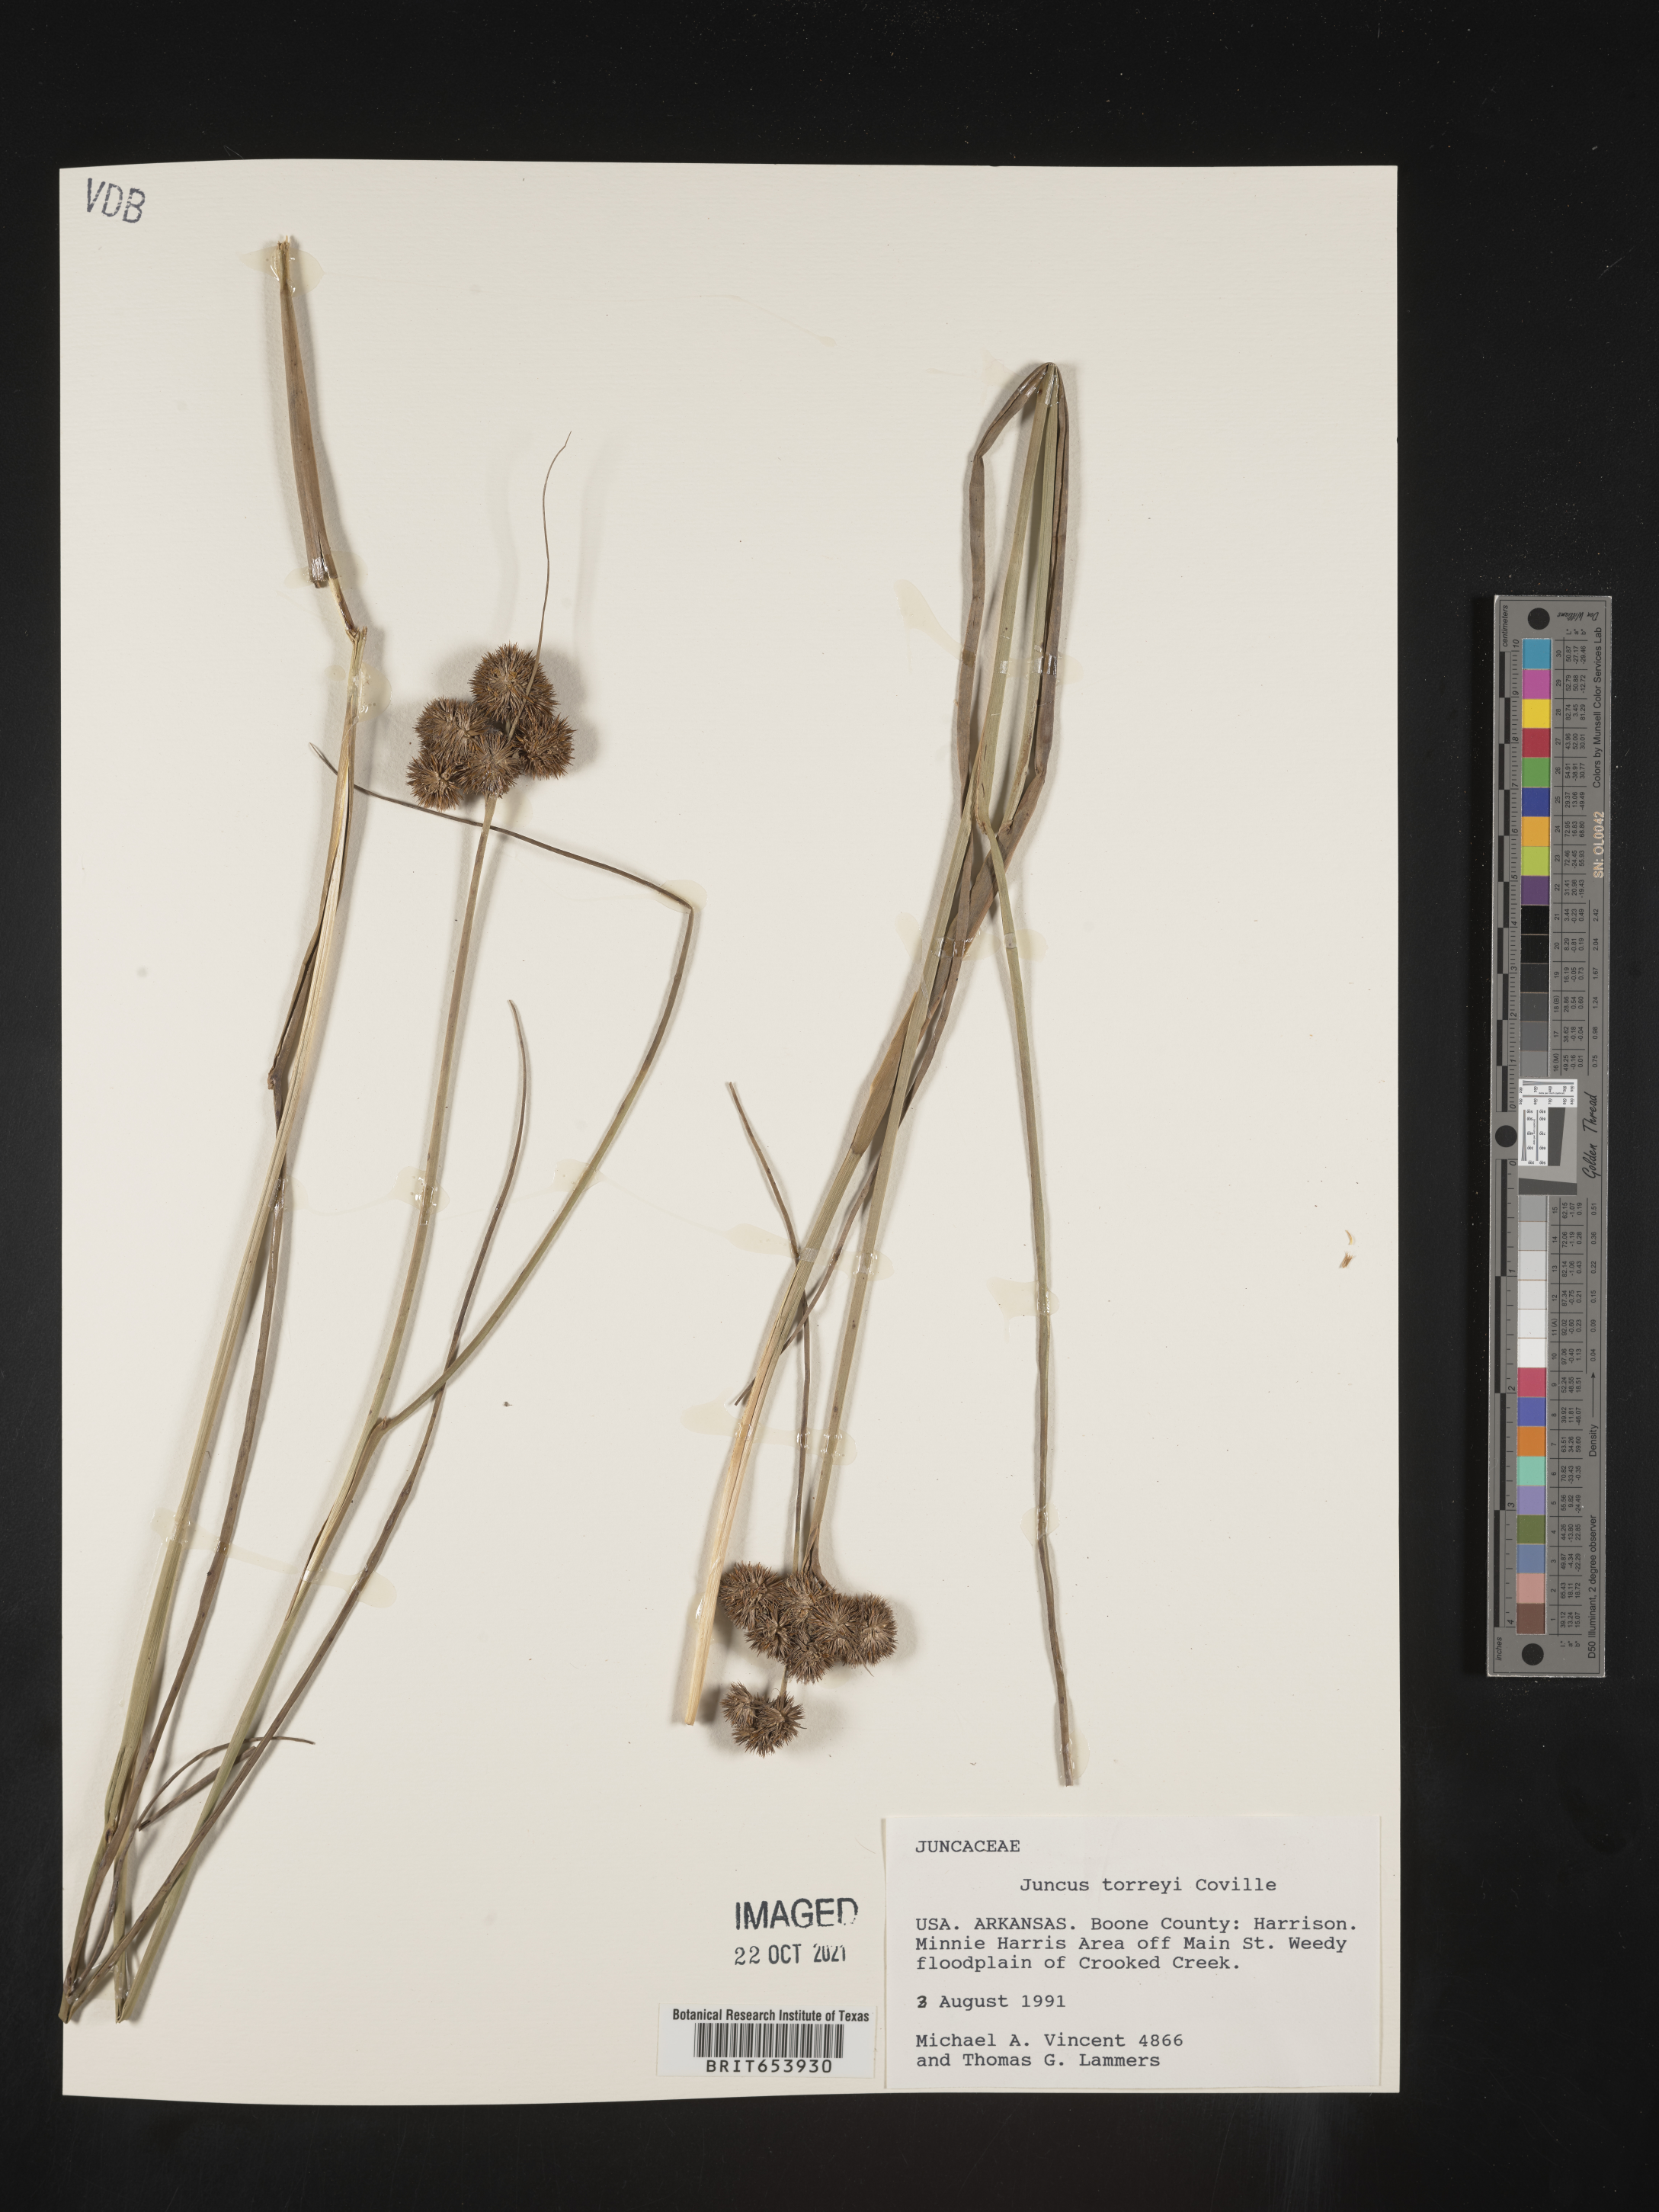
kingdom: Plantae
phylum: Tracheophyta
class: Liliopsida
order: Poales
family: Juncaceae
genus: Juncus
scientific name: Juncus torreyi
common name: Torrey's rush
